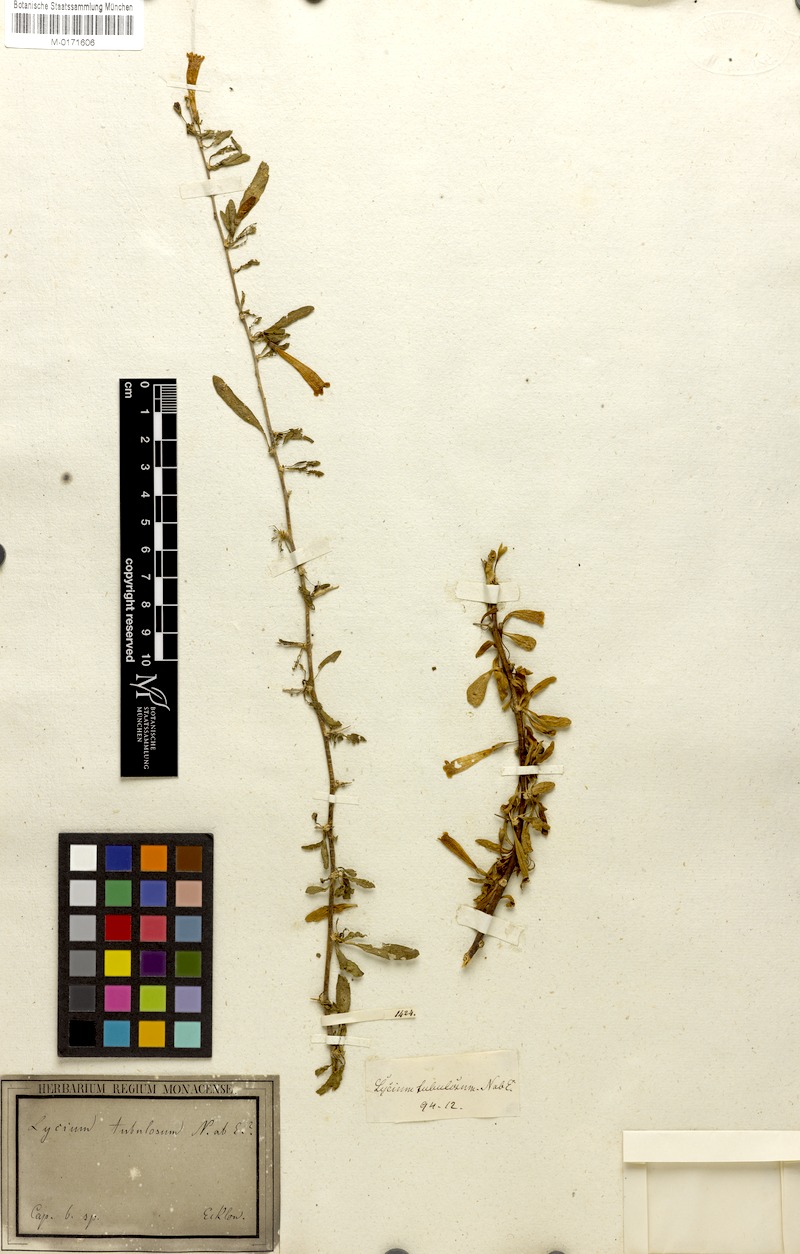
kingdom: Plantae
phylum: Tracheophyta
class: Magnoliopsida
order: Solanales
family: Solanaceae
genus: Lycium
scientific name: Lycium
